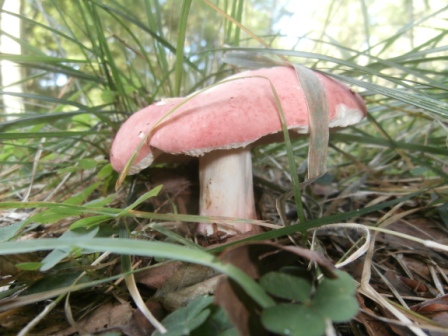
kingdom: Fungi
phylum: Basidiomycota
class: Agaricomycetes
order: Russulales
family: Russulaceae
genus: Russula
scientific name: Russula rosea
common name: fastkødet skørhat
